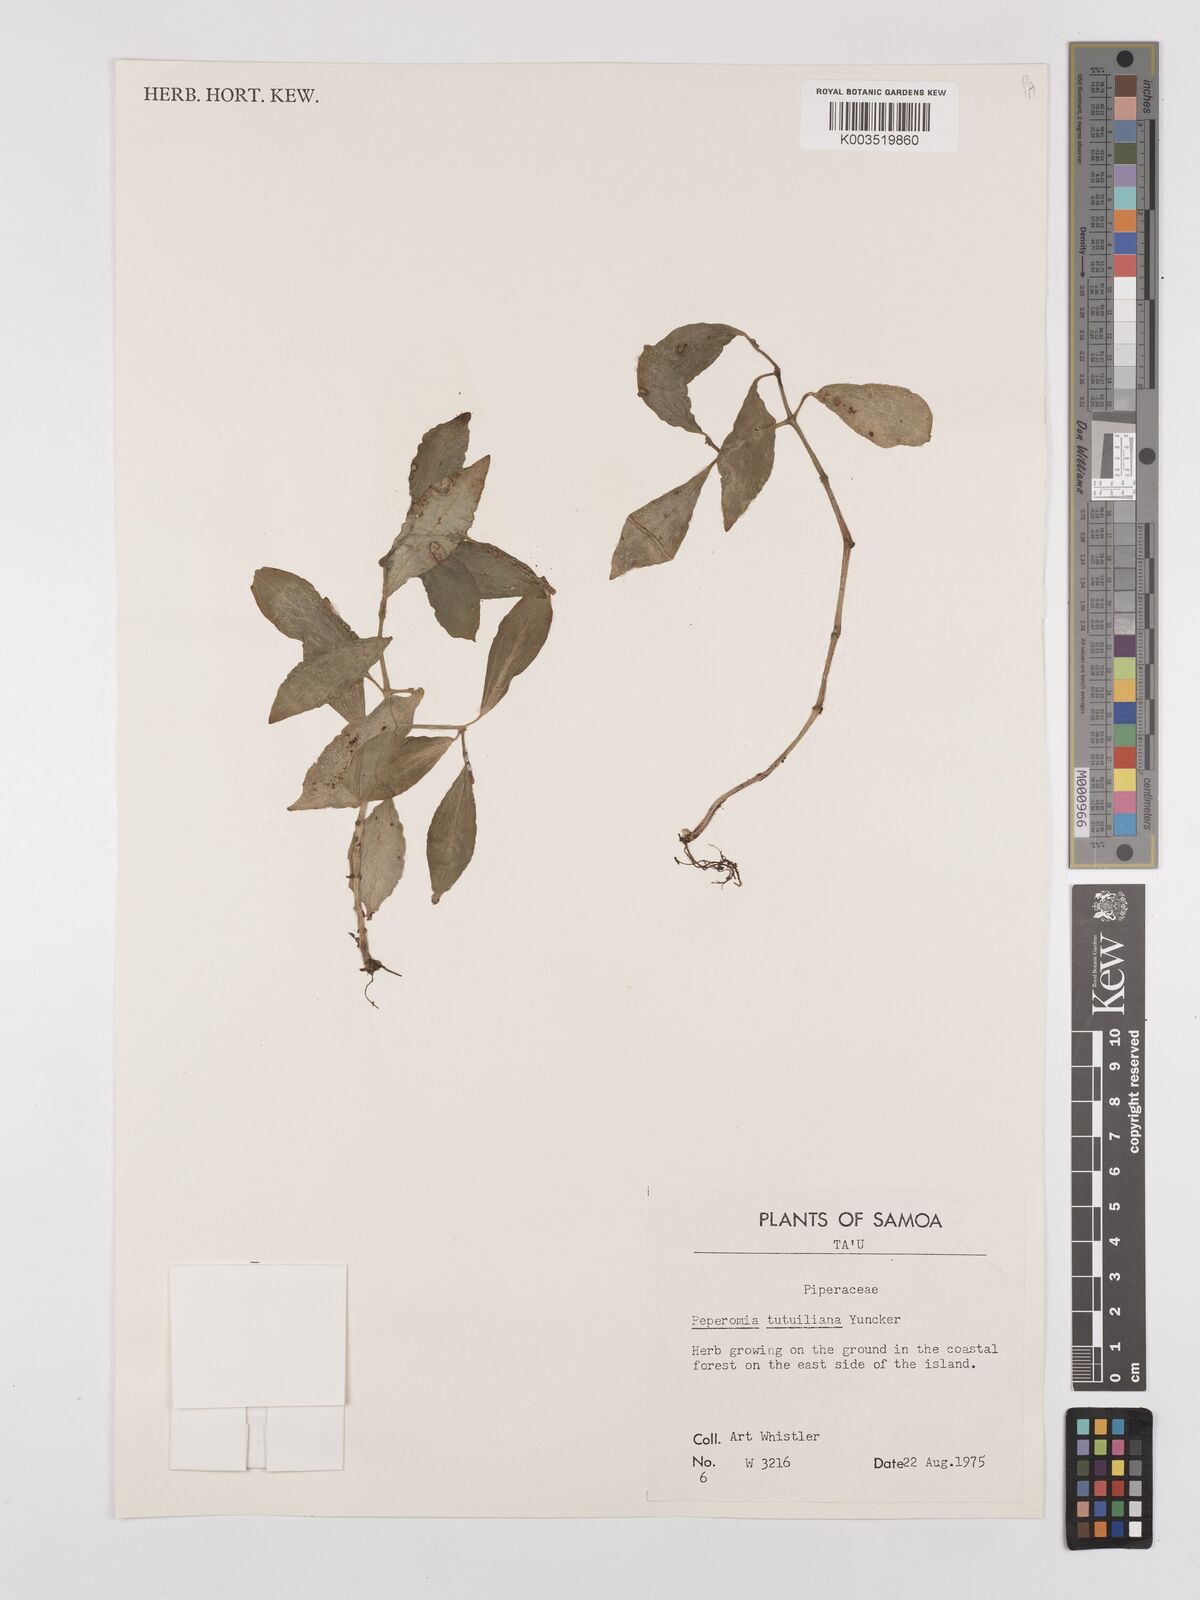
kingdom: Plantae
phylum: Tracheophyta
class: Magnoliopsida
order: Piperales
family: Piperaceae
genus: Peperomia
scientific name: Peperomia tutuilana
